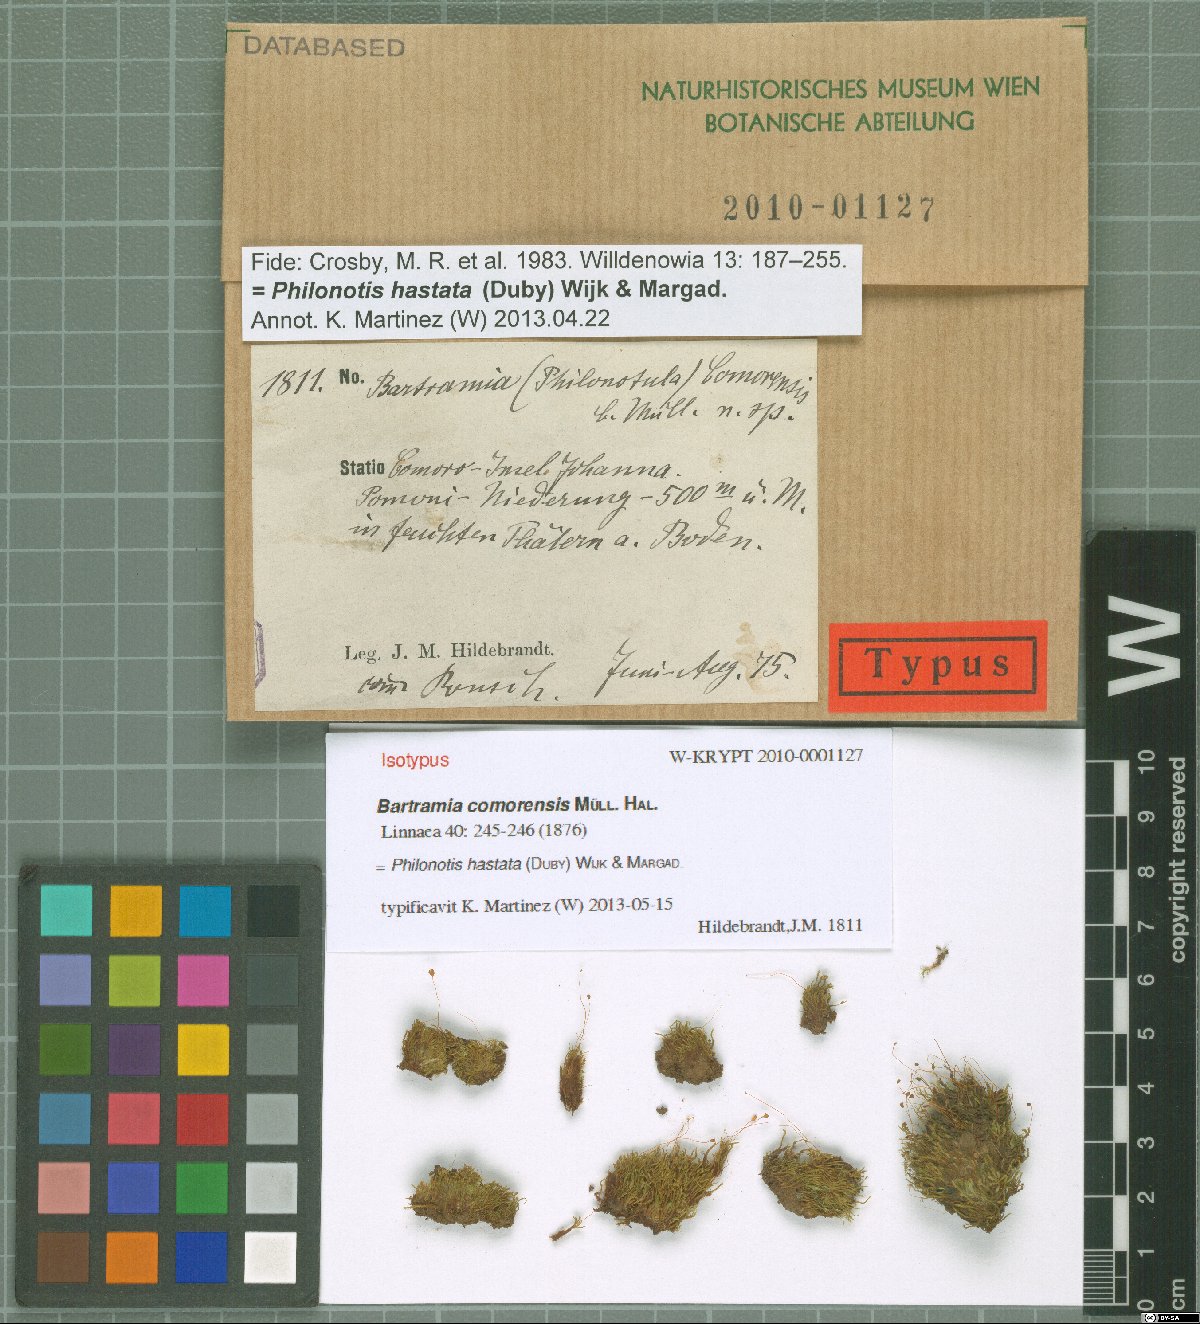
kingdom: Plantae
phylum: Bryophyta
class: Bryopsida
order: Bartramiales
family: Bartramiaceae
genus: Philonotis
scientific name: Philonotis hastata
